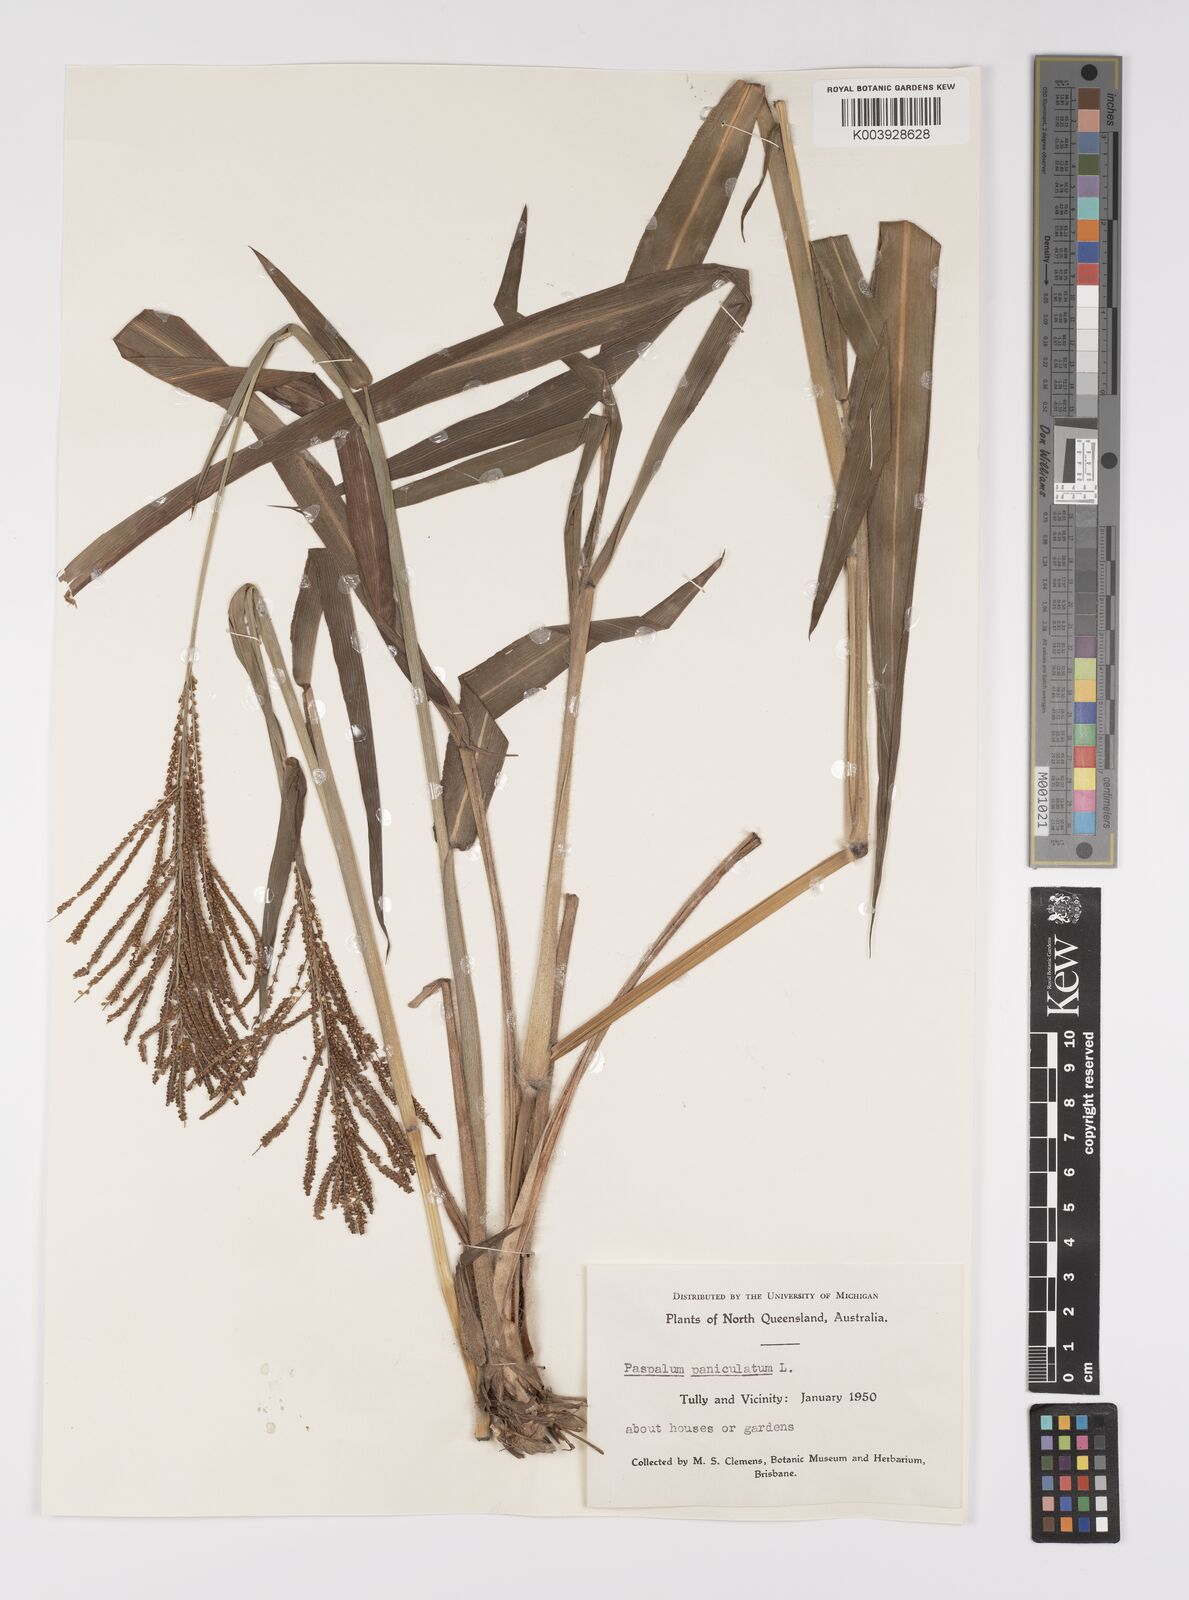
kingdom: Plantae
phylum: Tracheophyta
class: Liliopsida
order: Poales
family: Poaceae
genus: Paspalum
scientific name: Paspalum paniculatum
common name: Arrocillo
